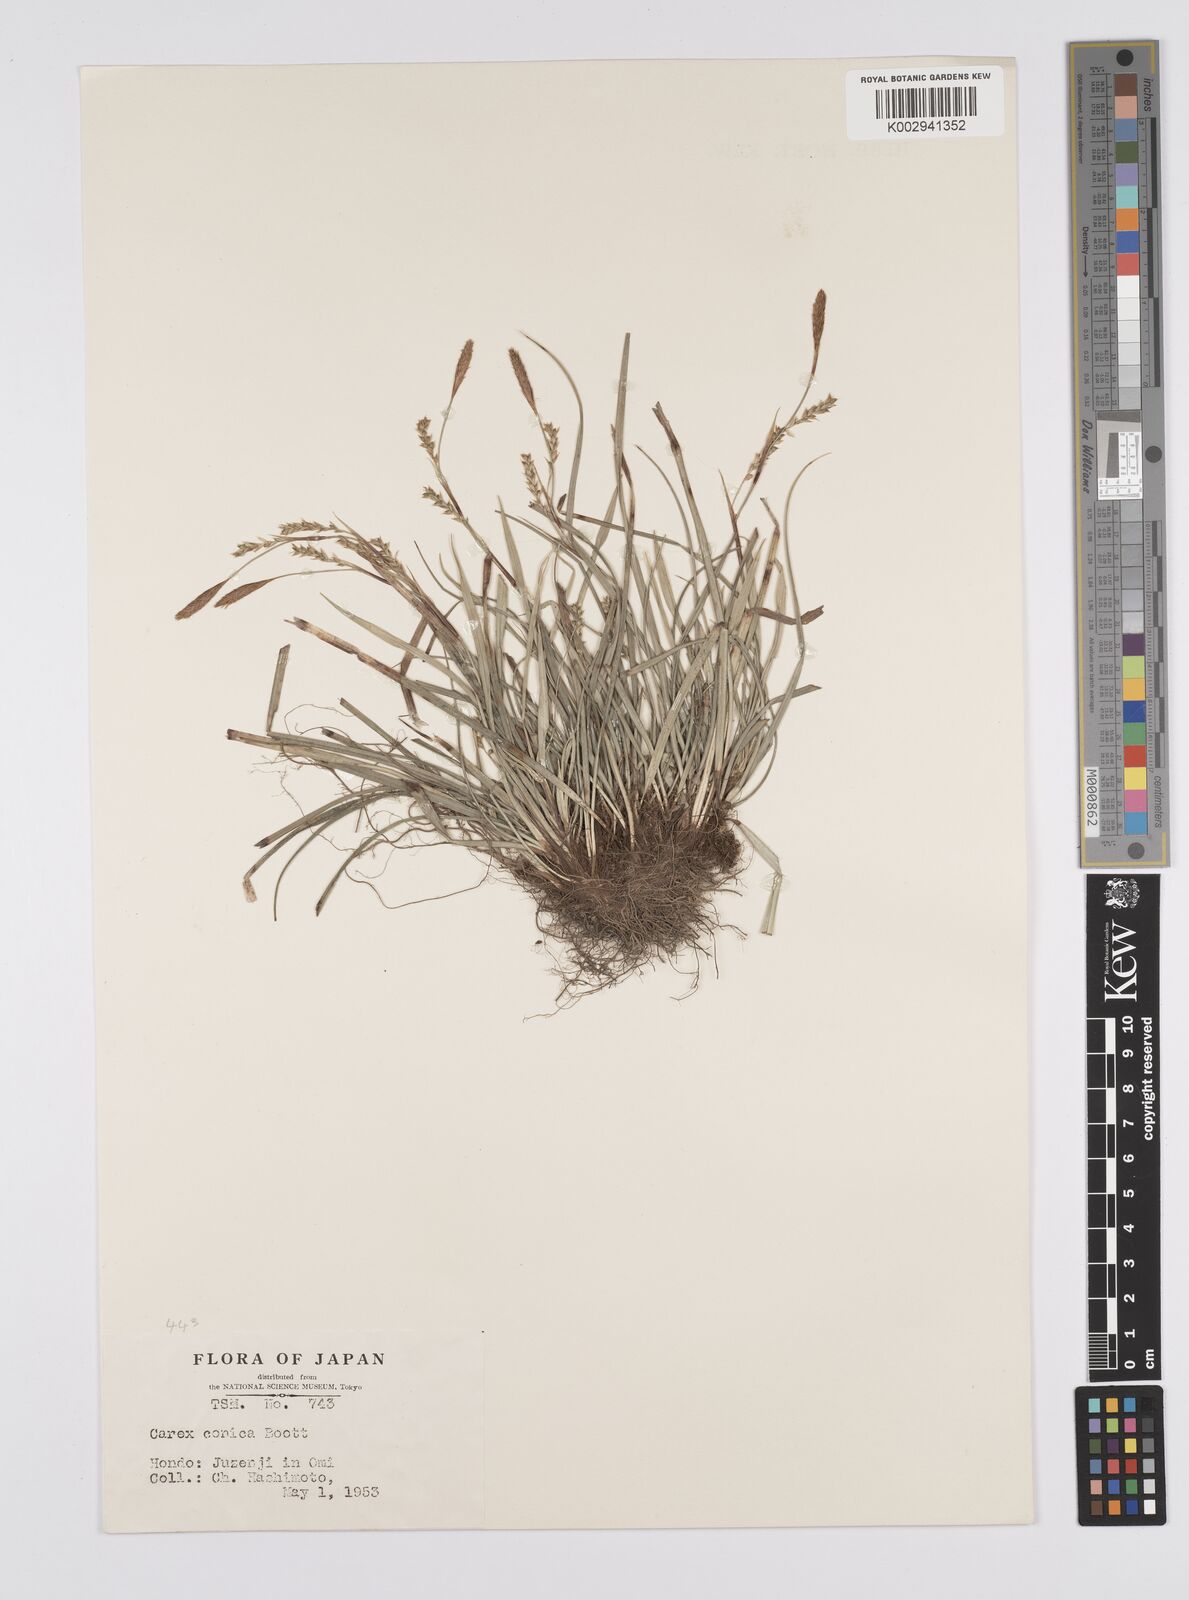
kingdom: Plantae
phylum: Tracheophyta
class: Liliopsida
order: Poales
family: Cyperaceae
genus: Carex
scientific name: Carex conica
